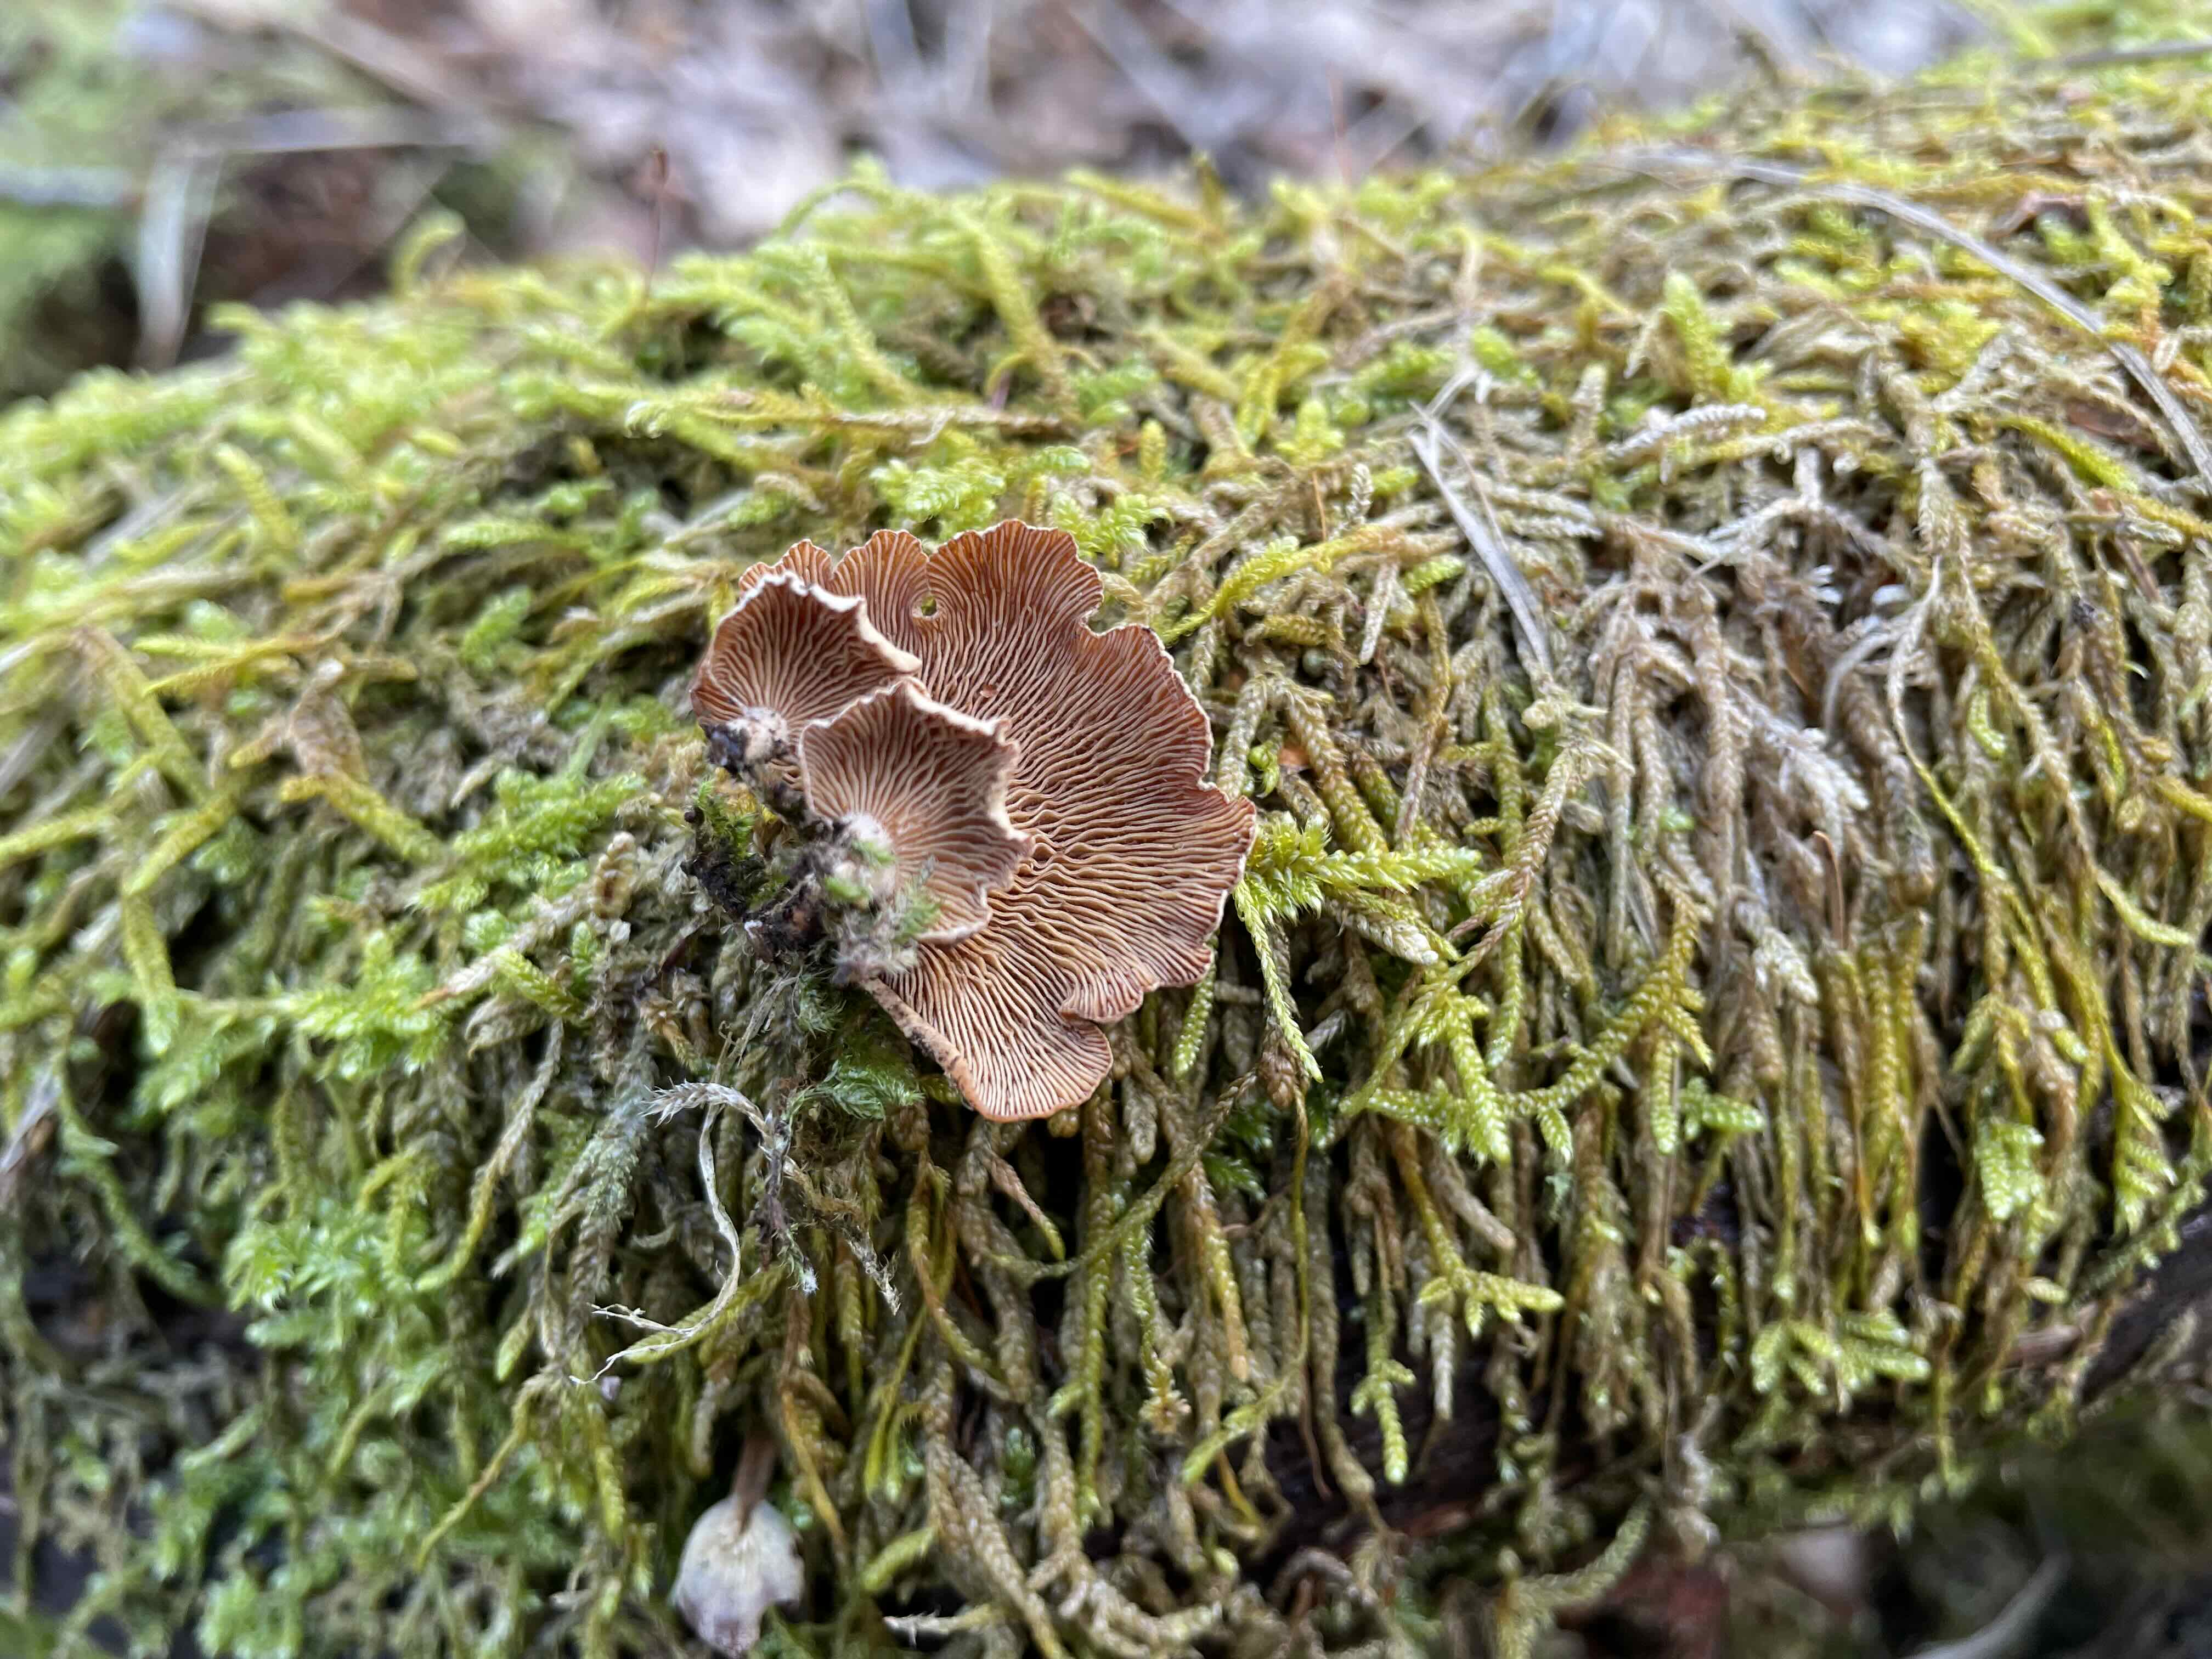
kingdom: Fungi
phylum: Basidiomycota
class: Agaricomycetes
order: Agaricales
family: Mycenaceae
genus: Panellus
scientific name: Panellus stipticus
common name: kliddet epaulethat
